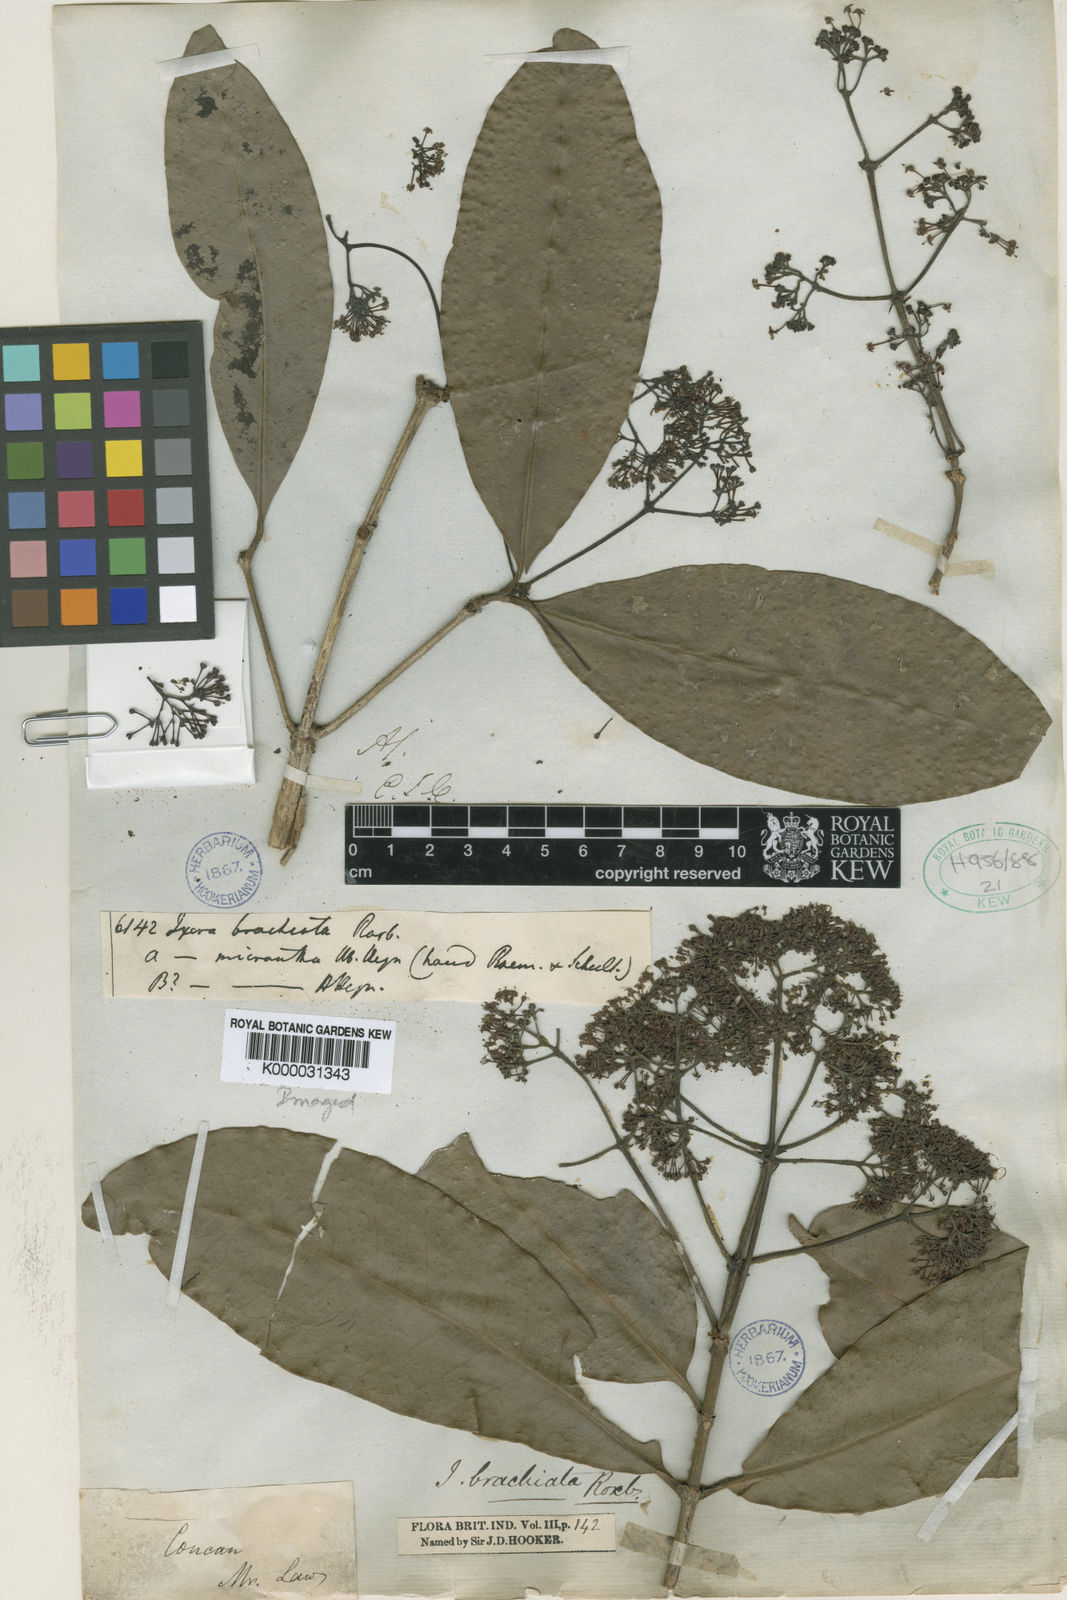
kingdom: Plantae
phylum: Tracheophyta
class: Magnoliopsida
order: Gentianales
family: Rubiaceae
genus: Ixora
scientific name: Ixora brachiata
